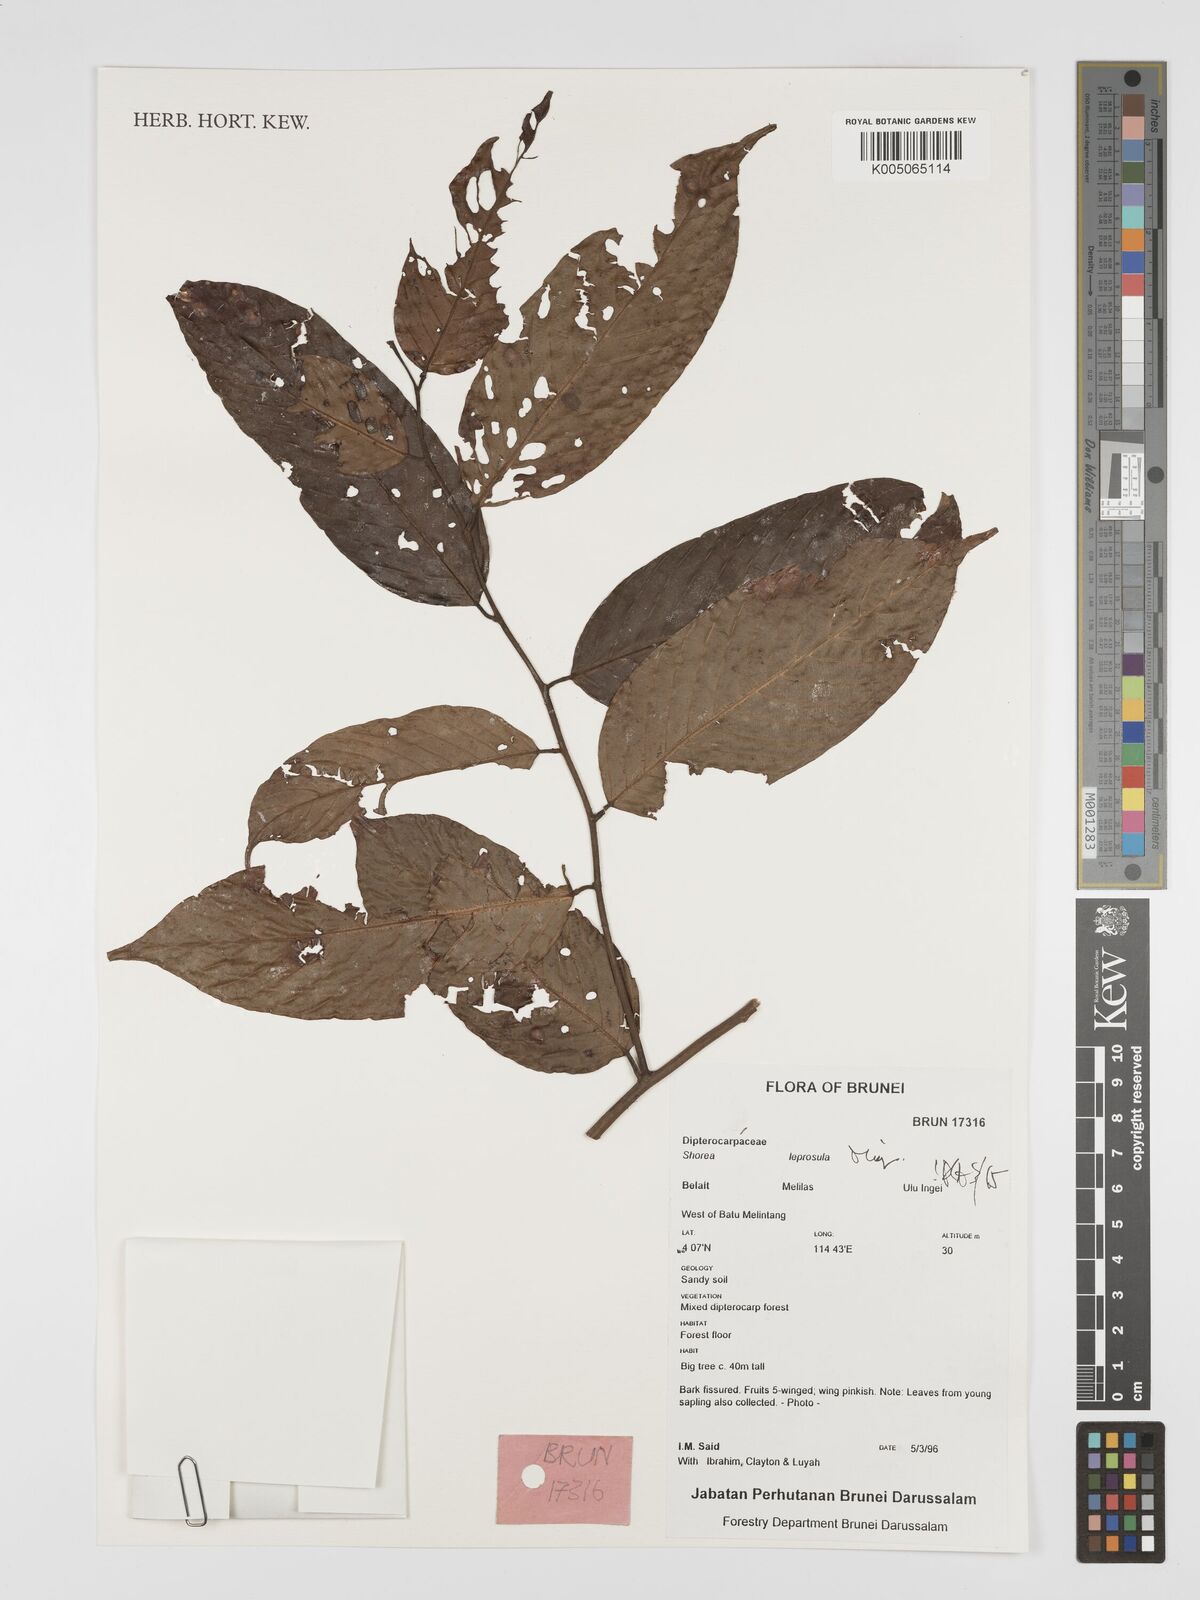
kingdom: Plantae
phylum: Tracheophyta
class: Magnoliopsida
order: Malvales
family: Dipterocarpaceae
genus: Shorea
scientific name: Shorea leprosula
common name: Light red meranti
